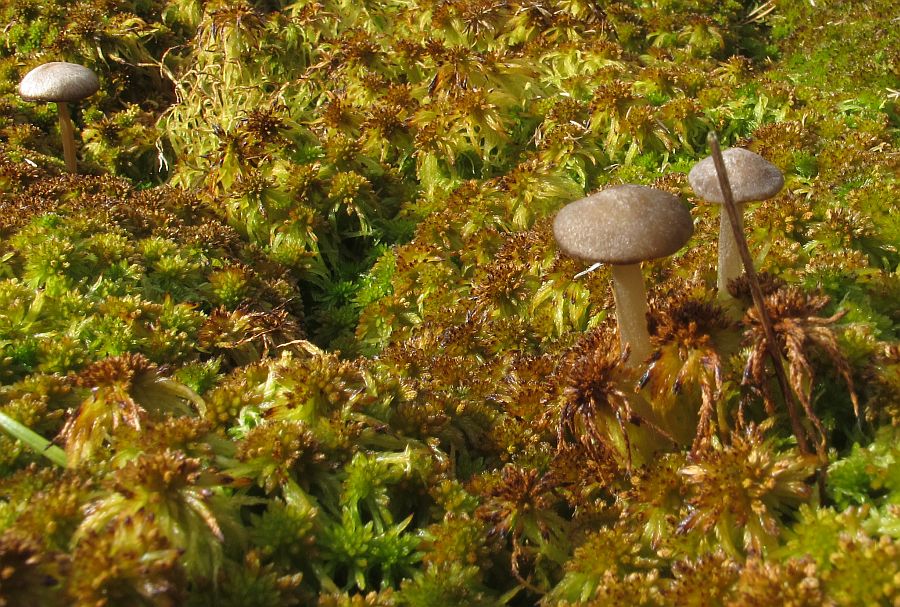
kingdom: Fungi
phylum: Basidiomycota
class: Agaricomycetes
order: Agaricales
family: Lyophyllaceae
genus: Sphagnurus
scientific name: Sphagnurus paluster
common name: tørvemos-gråblad
